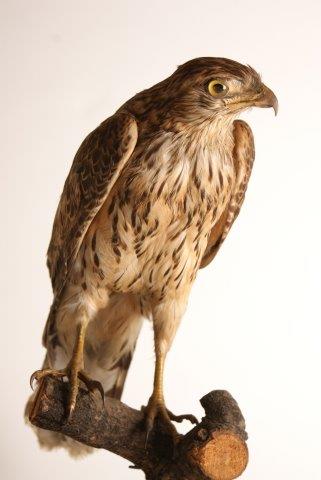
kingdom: Animalia
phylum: Chordata
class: Aves
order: Accipitriformes
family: Accipitridae
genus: Accipiter
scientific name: Accipiter gentilis
